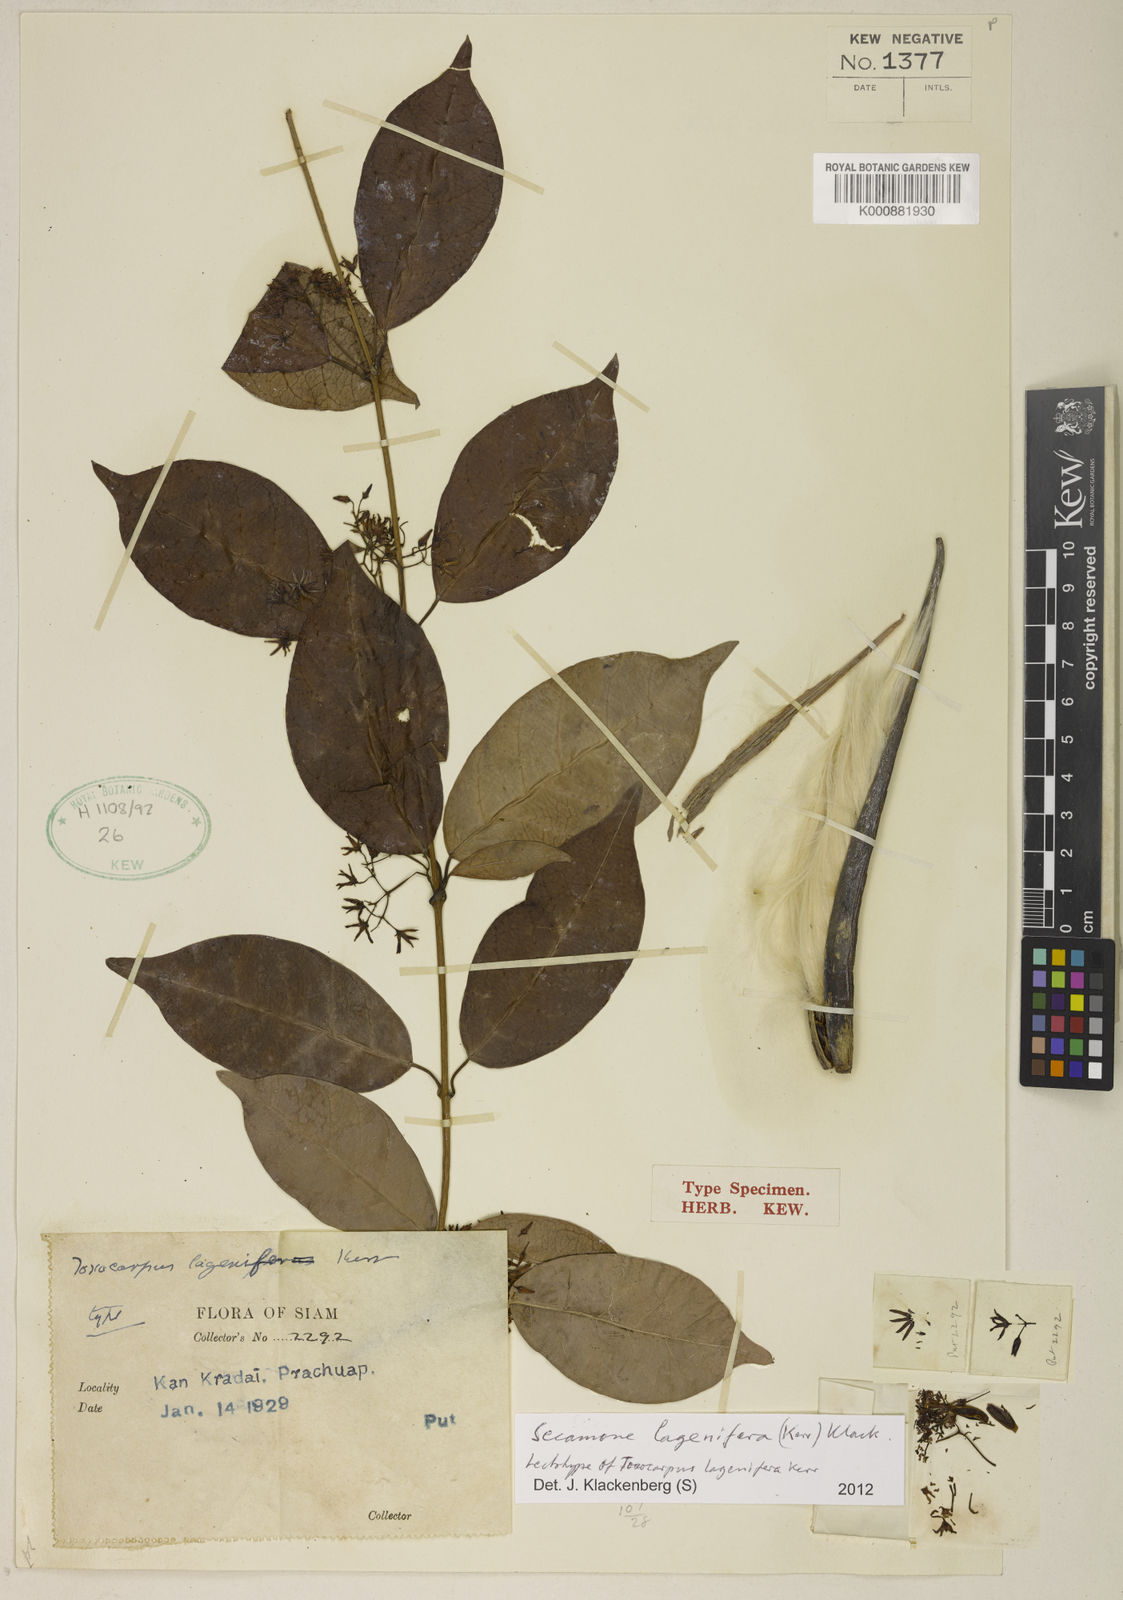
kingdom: Plantae
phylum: Tracheophyta
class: Magnoliopsida
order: Gentianales
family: Apocynaceae
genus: Secamone
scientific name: Secamone lagenifera
